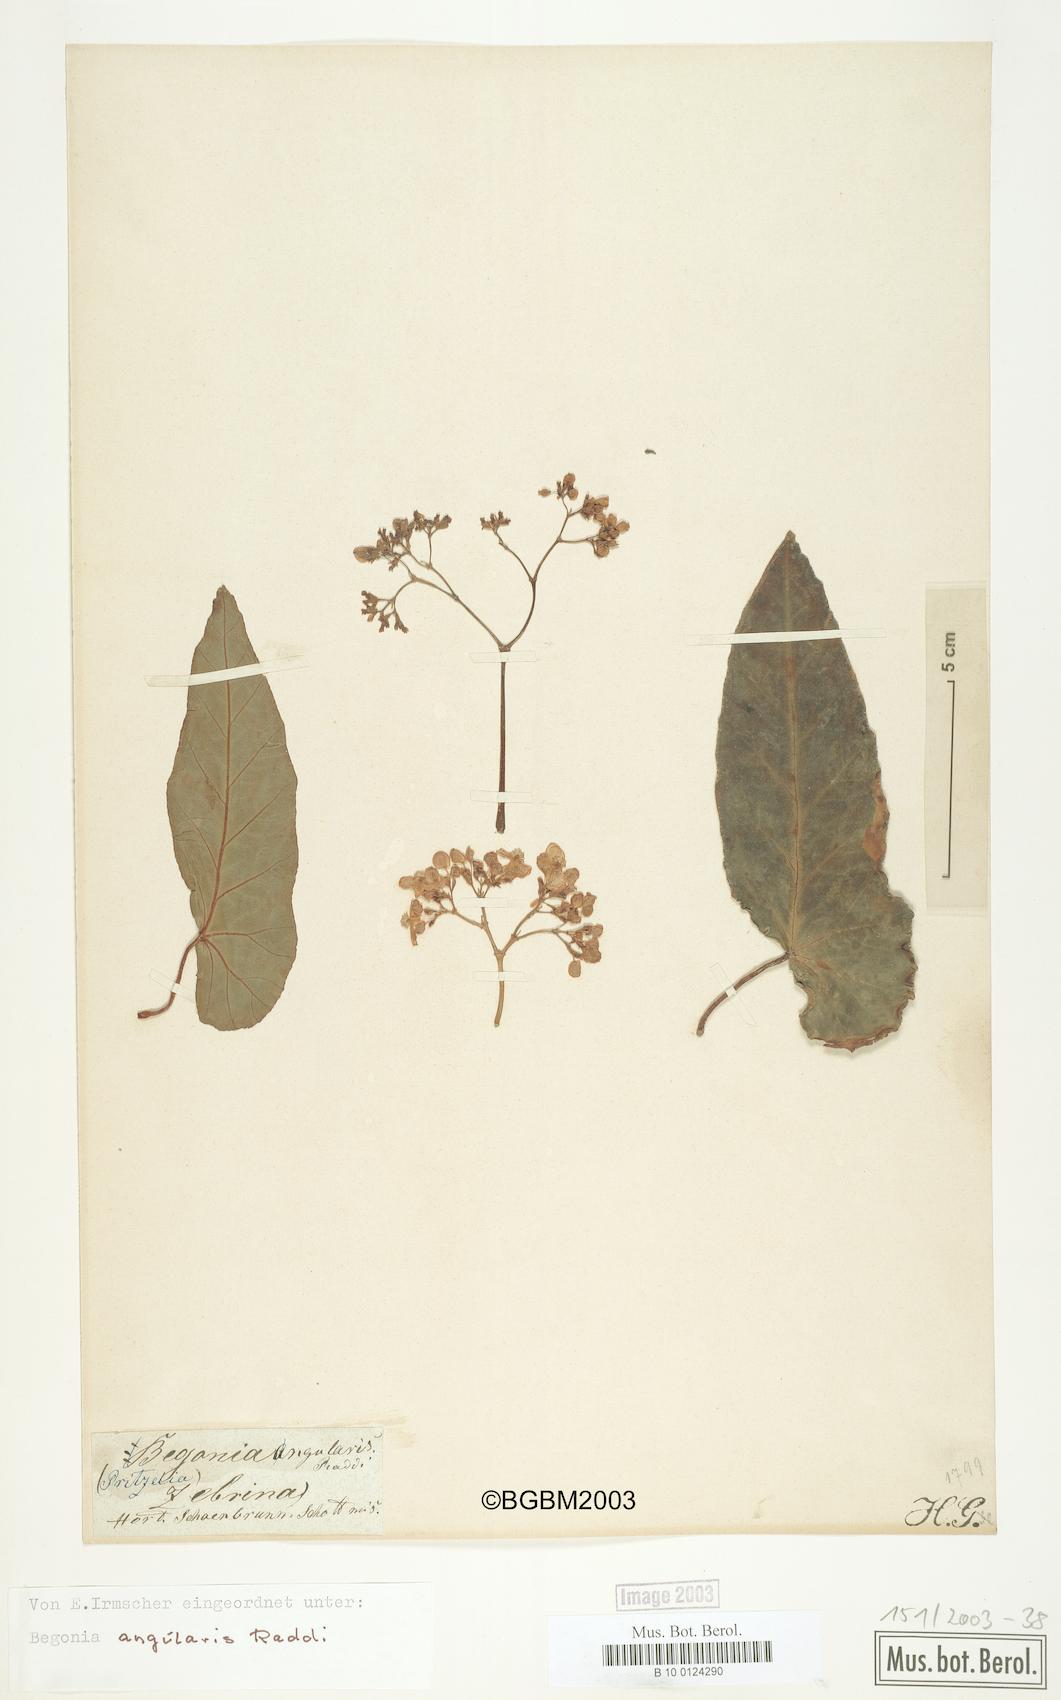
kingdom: Plantae
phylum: Tracheophyta
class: Magnoliopsida
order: Cucurbitales
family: Begoniaceae
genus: Begonia
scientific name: Begonia angularis
